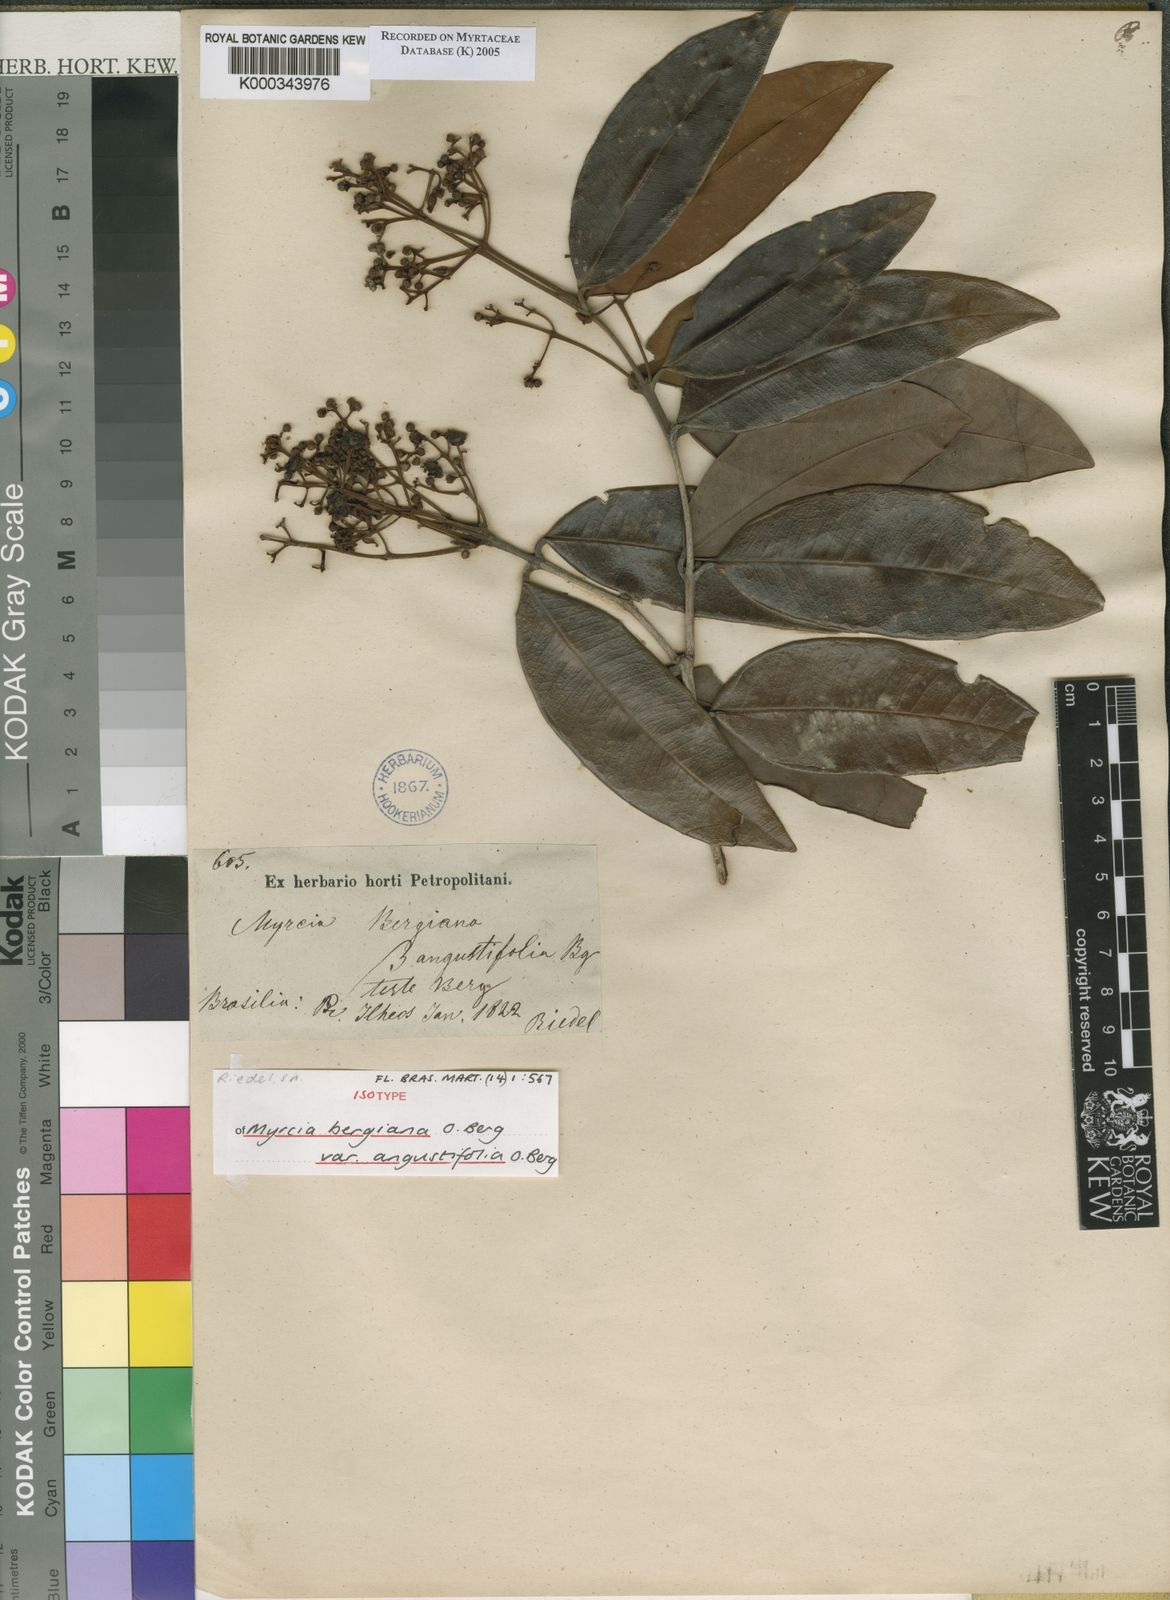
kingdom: Plantae
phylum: Tracheophyta
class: Magnoliopsida
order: Myrtales
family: Myrtaceae
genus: Myrcia
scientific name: Myrcia bergiana
